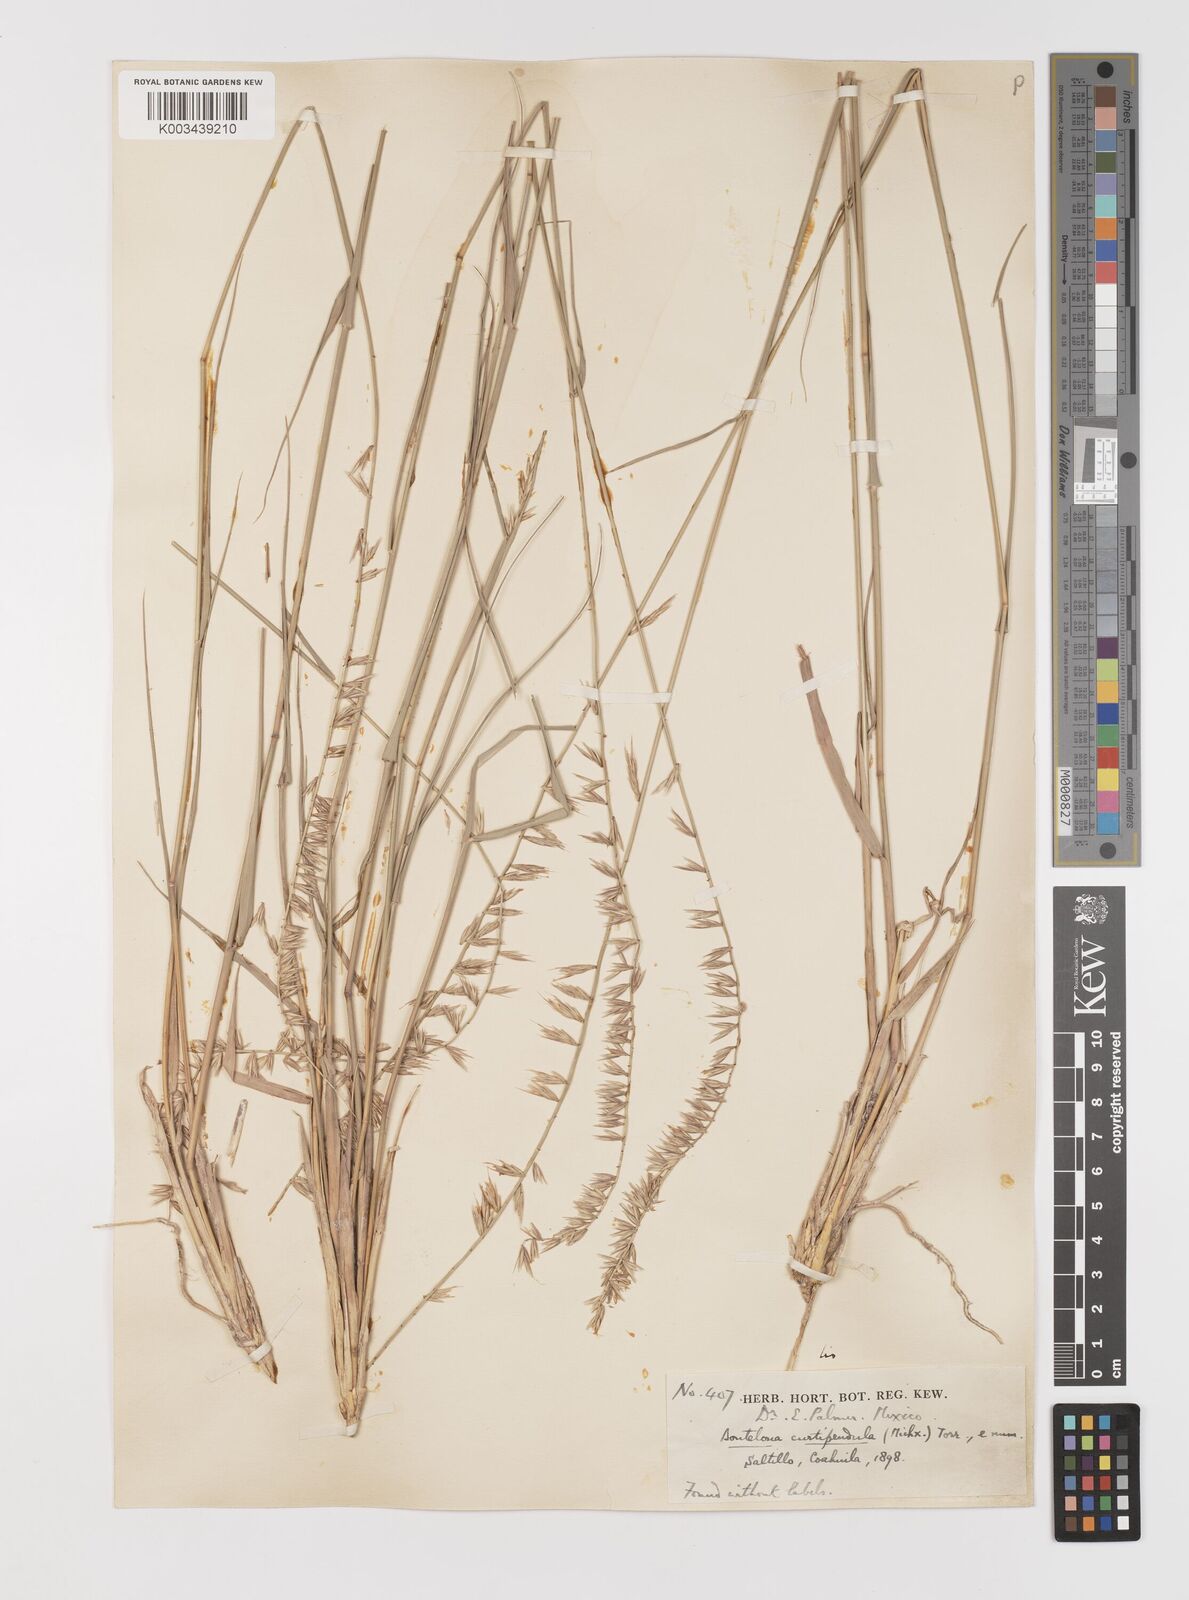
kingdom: Plantae
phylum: Tracheophyta
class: Liliopsida
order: Poales
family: Poaceae
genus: Bouteloua
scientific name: Bouteloua curtipendula
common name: Side-oats grama
